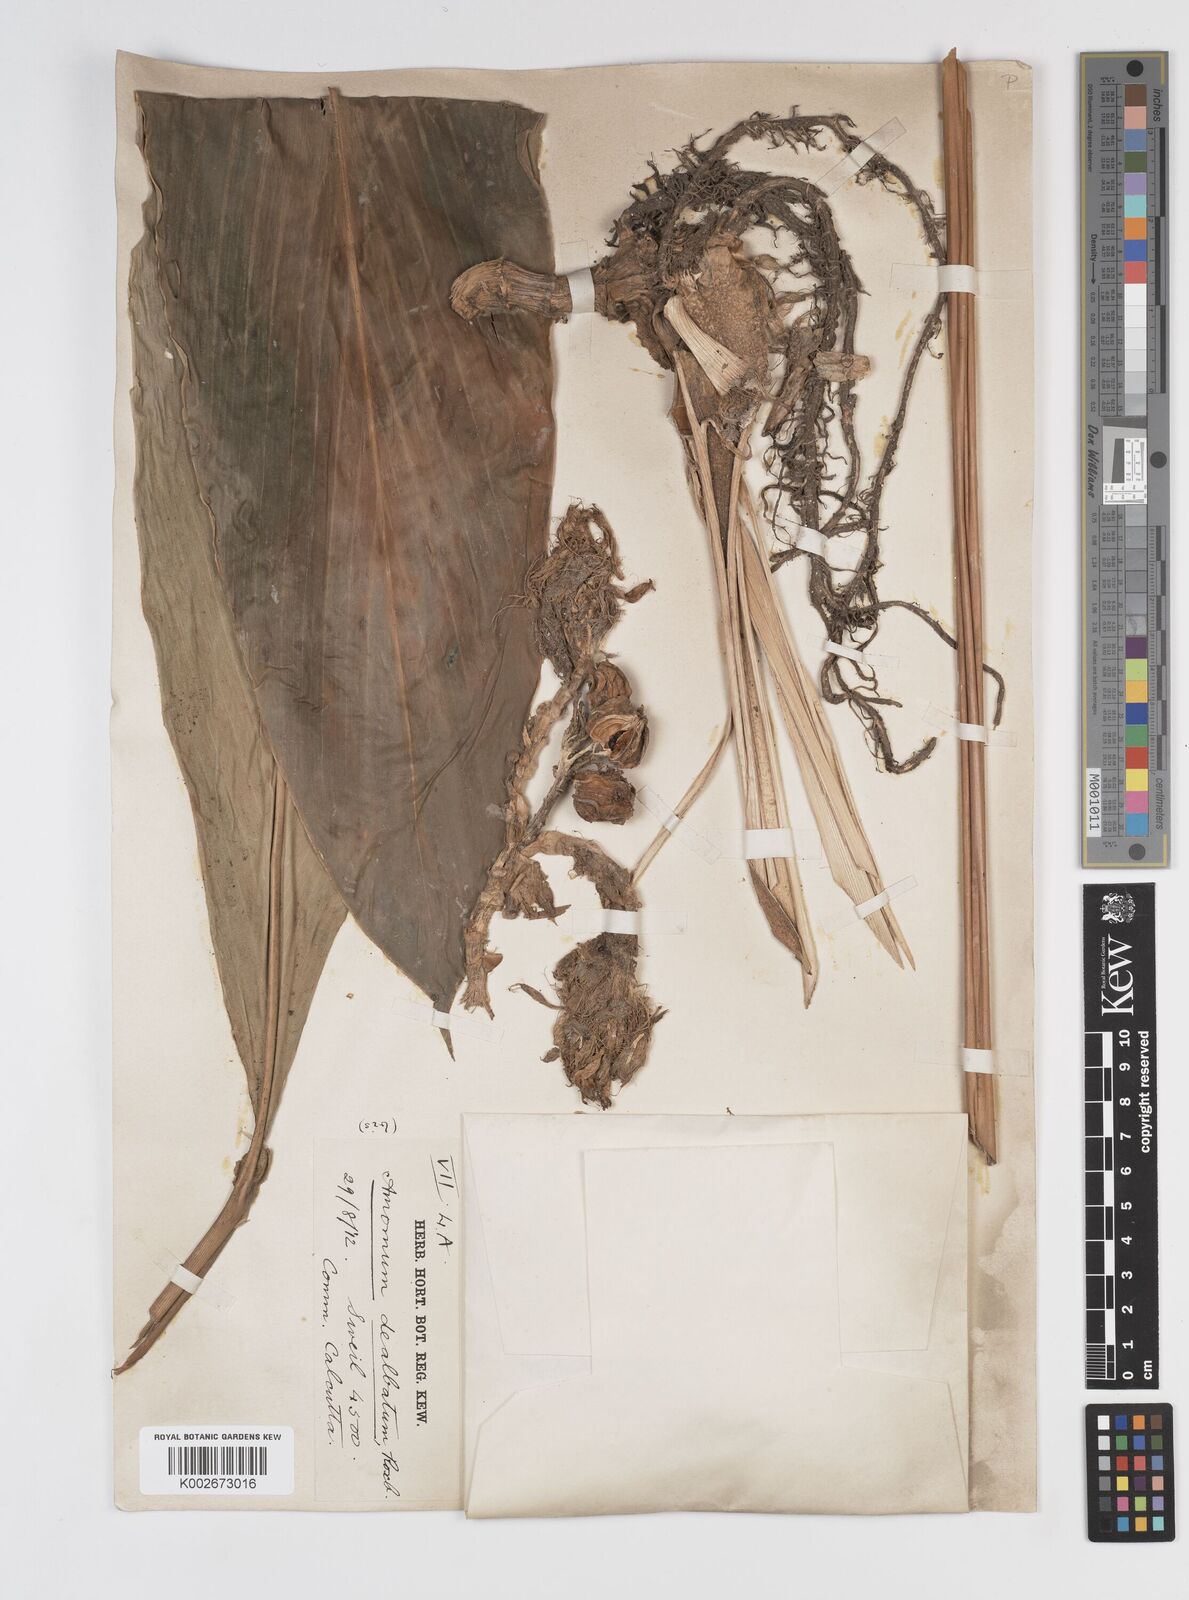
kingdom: Plantae
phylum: Tracheophyta
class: Liliopsida
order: Zingiberales
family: Zingiberaceae
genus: Amomum
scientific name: Amomum dealbatum
